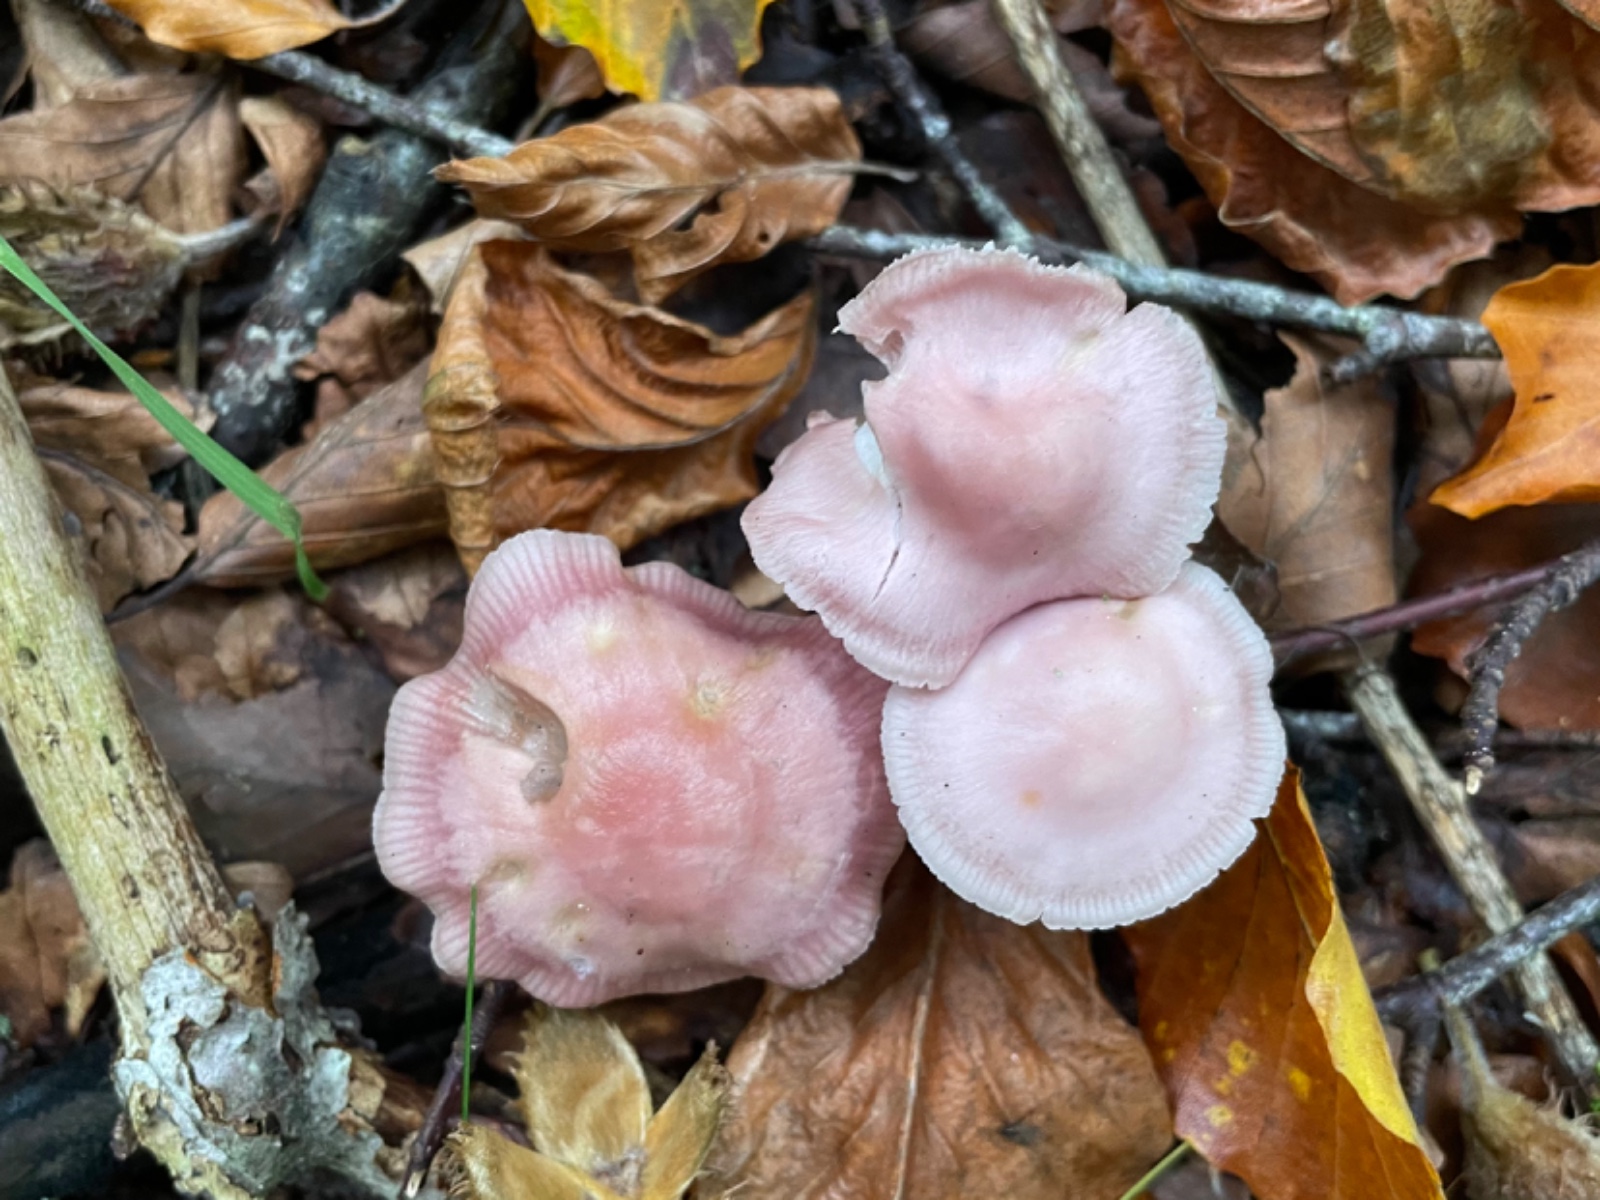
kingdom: Fungi
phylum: Basidiomycota
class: Agaricomycetes
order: Agaricales
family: Mycenaceae
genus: Mycena
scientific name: Mycena rosea
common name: rosa huesvamp
